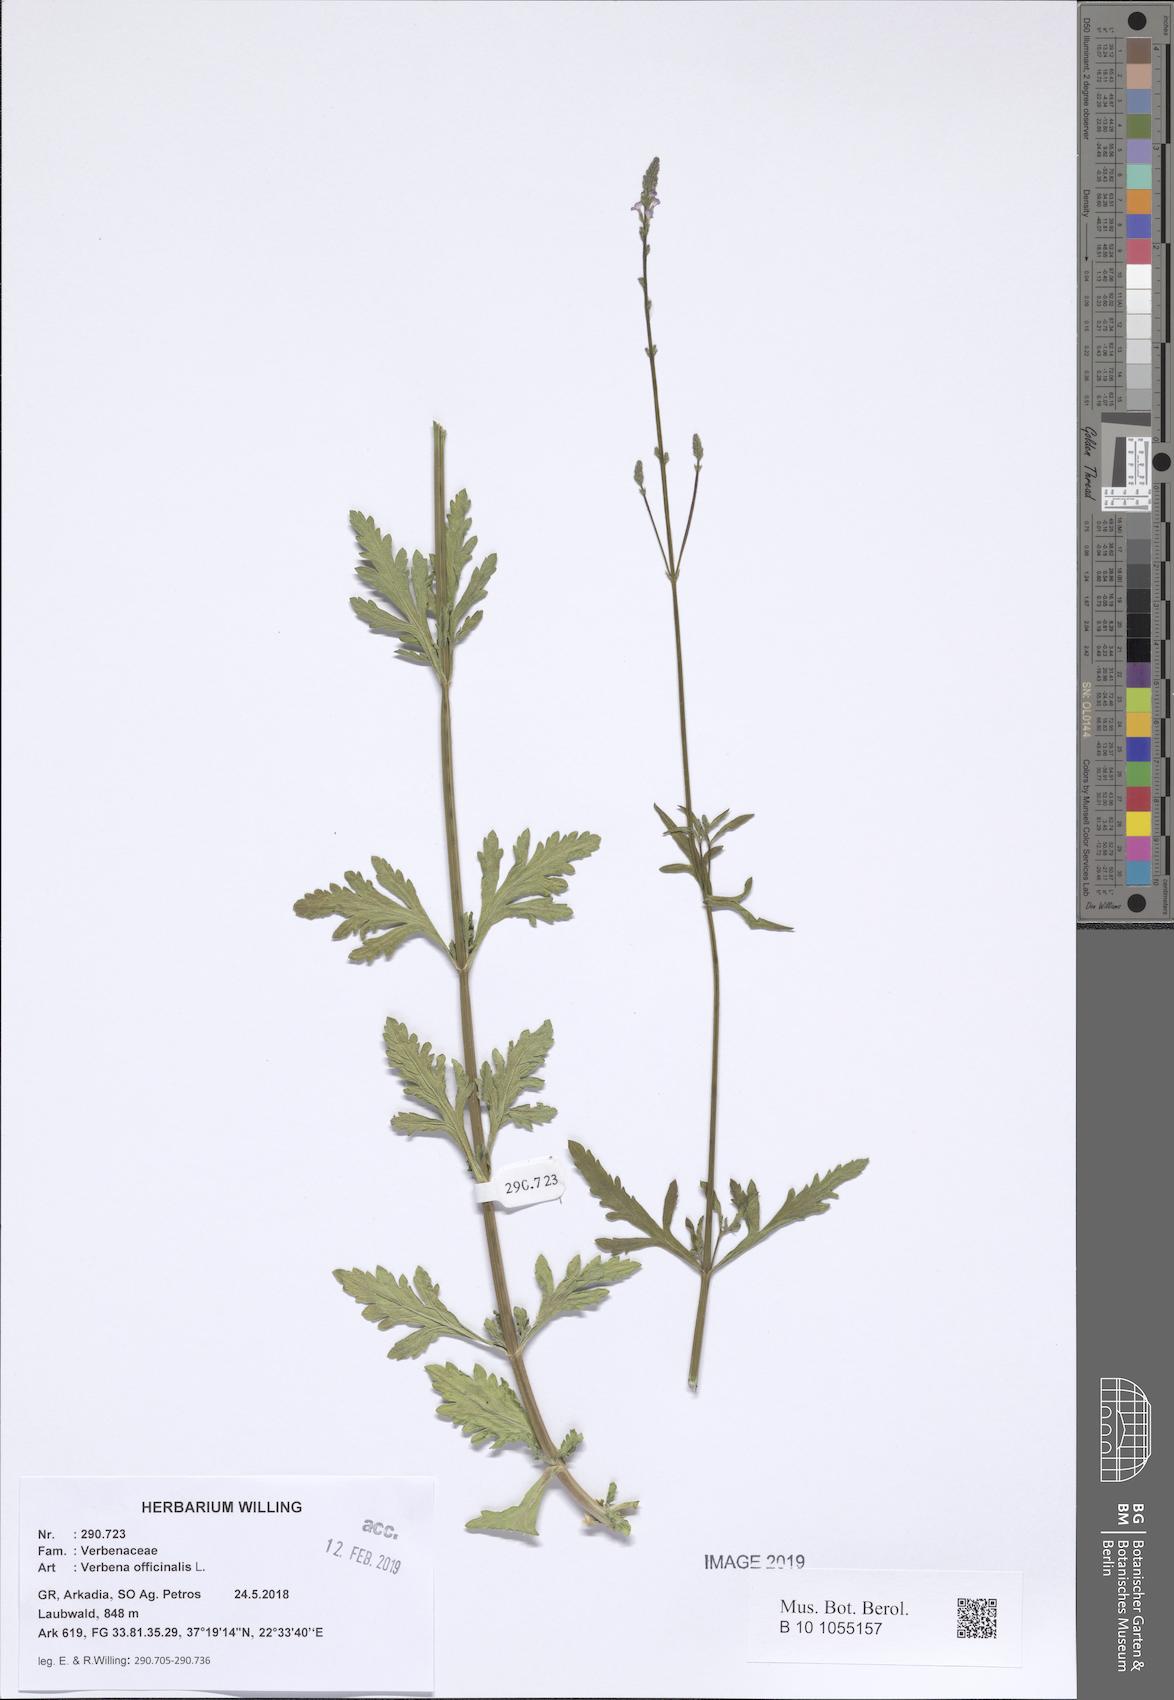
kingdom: Plantae
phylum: Tracheophyta
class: Magnoliopsida
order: Lamiales
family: Verbenaceae
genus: Verbena
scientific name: Verbena officinalis
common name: Vervain
